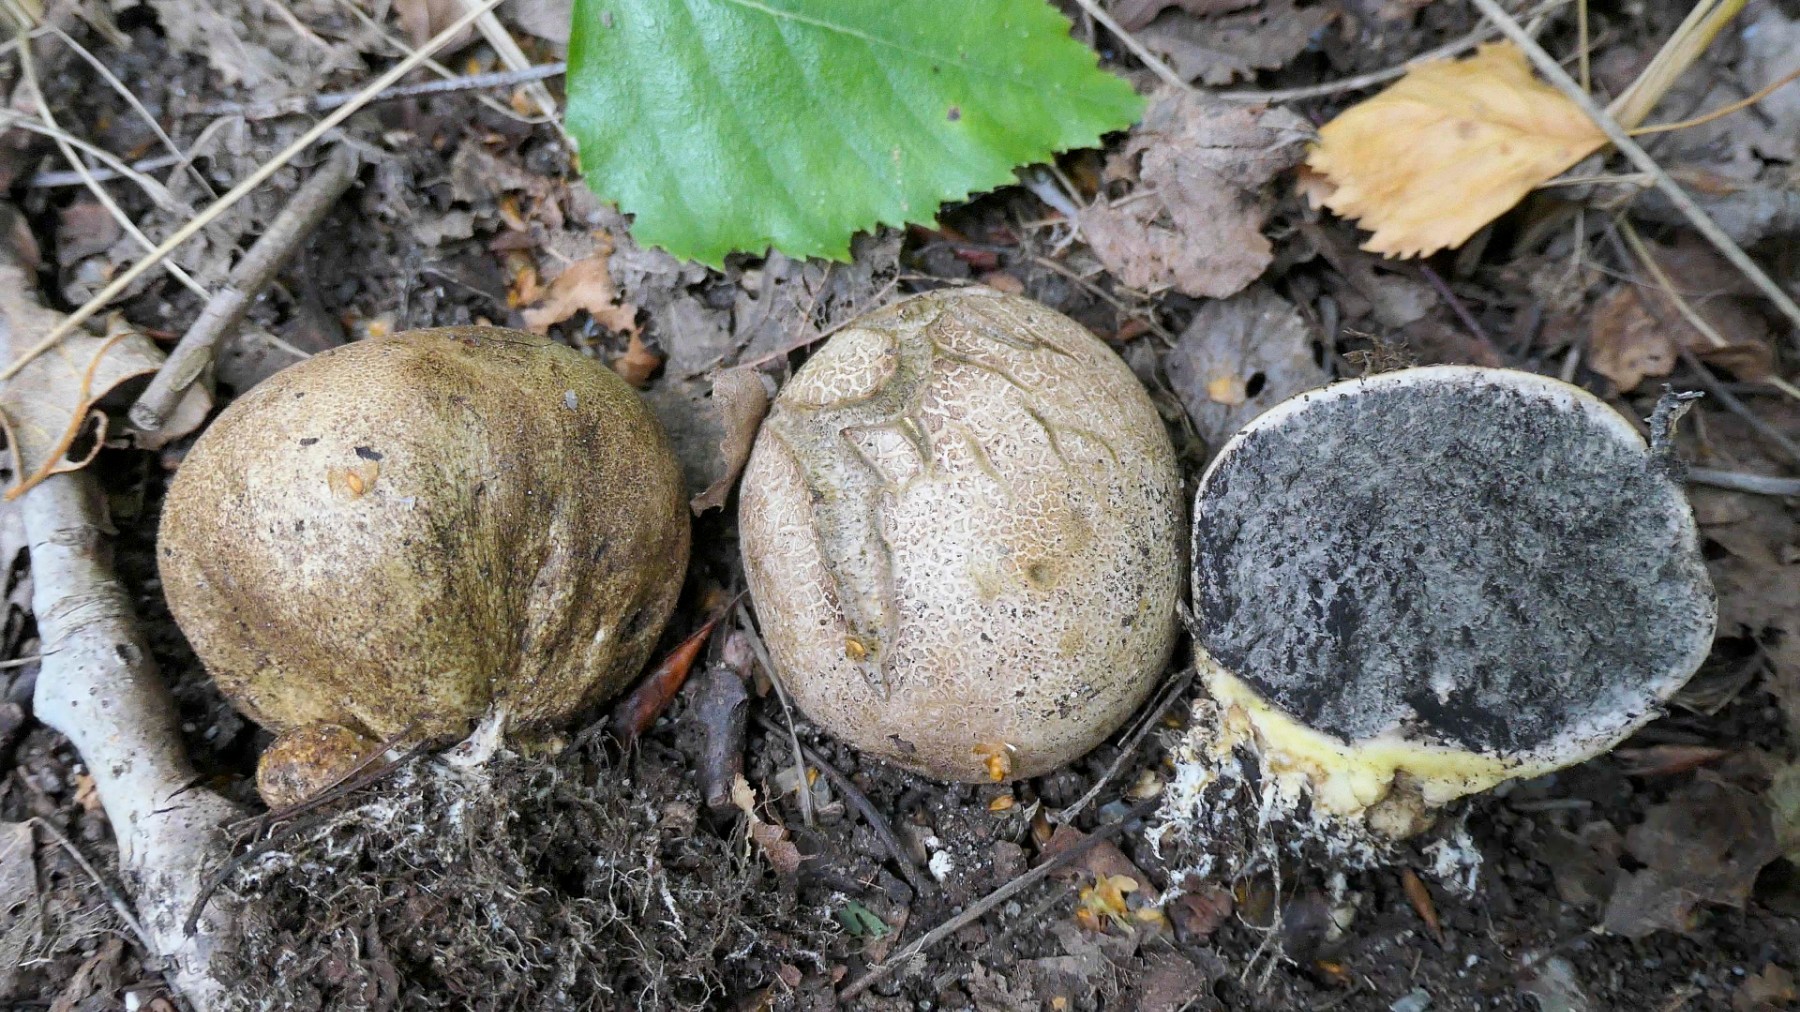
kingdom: Fungi
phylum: Basidiomycota
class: Agaricomycetes
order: Boletales
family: Sclerodermataceae
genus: Scleroderma
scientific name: Scleroderma bovista
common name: bovist-bruskbold
